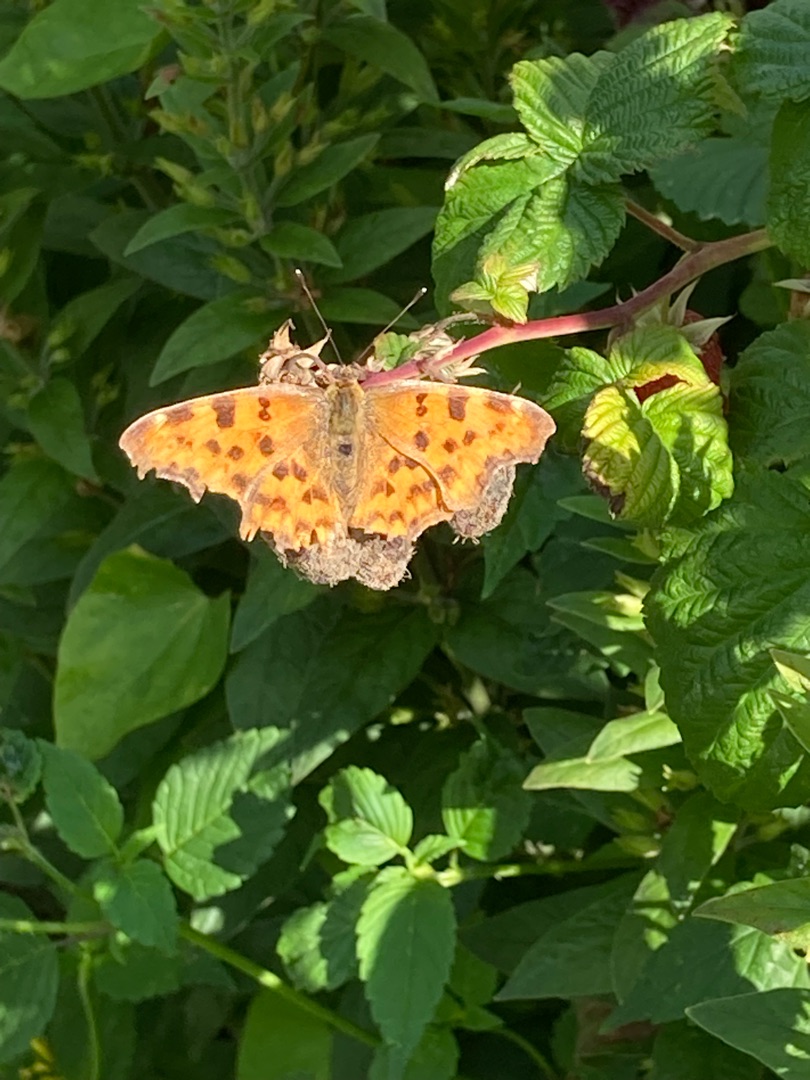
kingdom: Animalia
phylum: Arthropoda
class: Insecta
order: Lepidoptera
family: Nymphalidae
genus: Polygonia
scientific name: Polygonia c-album
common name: Det hvide C
